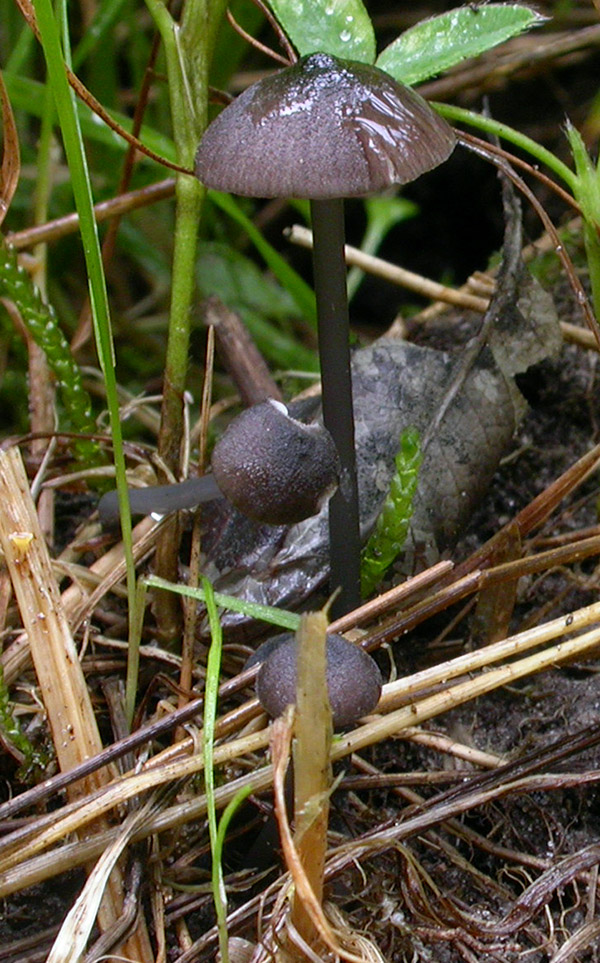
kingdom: Fungi
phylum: Basidiomycota
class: Agaricomycetes
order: Agaricales
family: Entolomataceae
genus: Entoloma
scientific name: Entoloma pseudocruentatum
